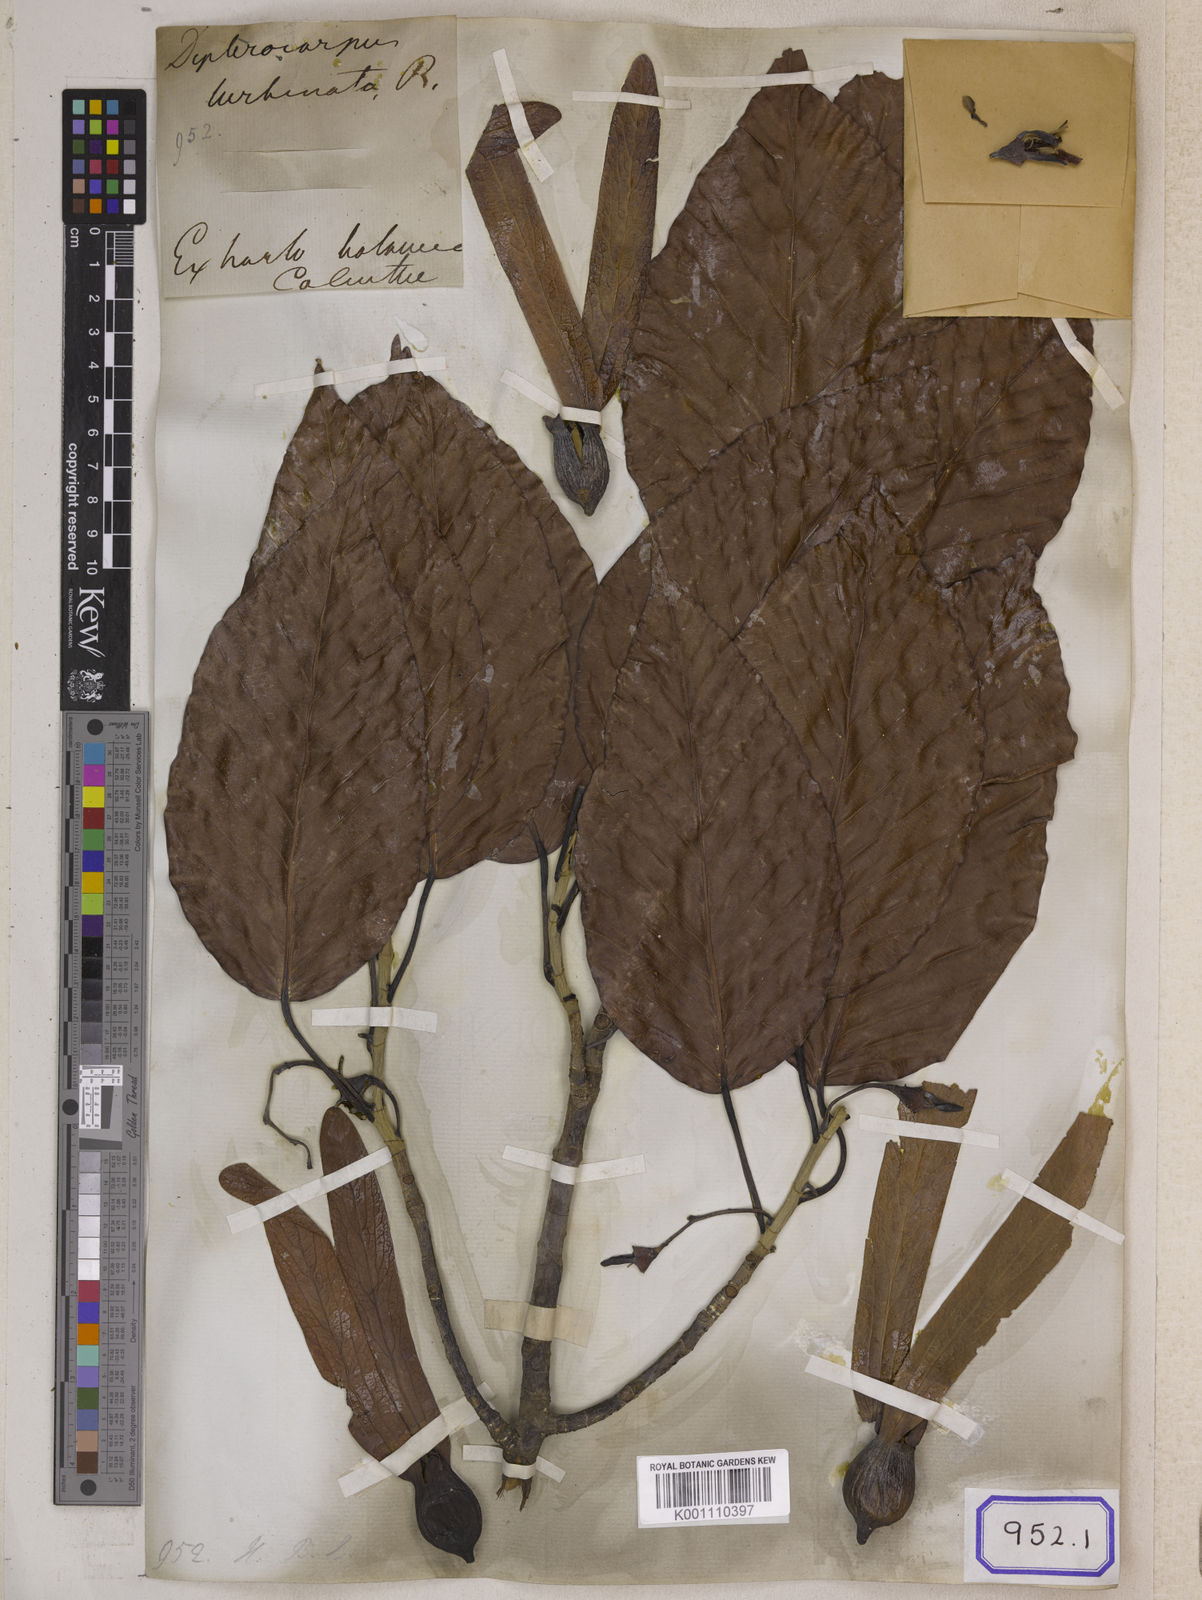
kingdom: Plantae
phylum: Tracheophyta
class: Magnoliopsida
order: Malvales
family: Dipterocarpaceae
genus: Dipterocarpus
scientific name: Dipterocarpus turbinatus
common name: East indian copaiba balsam
